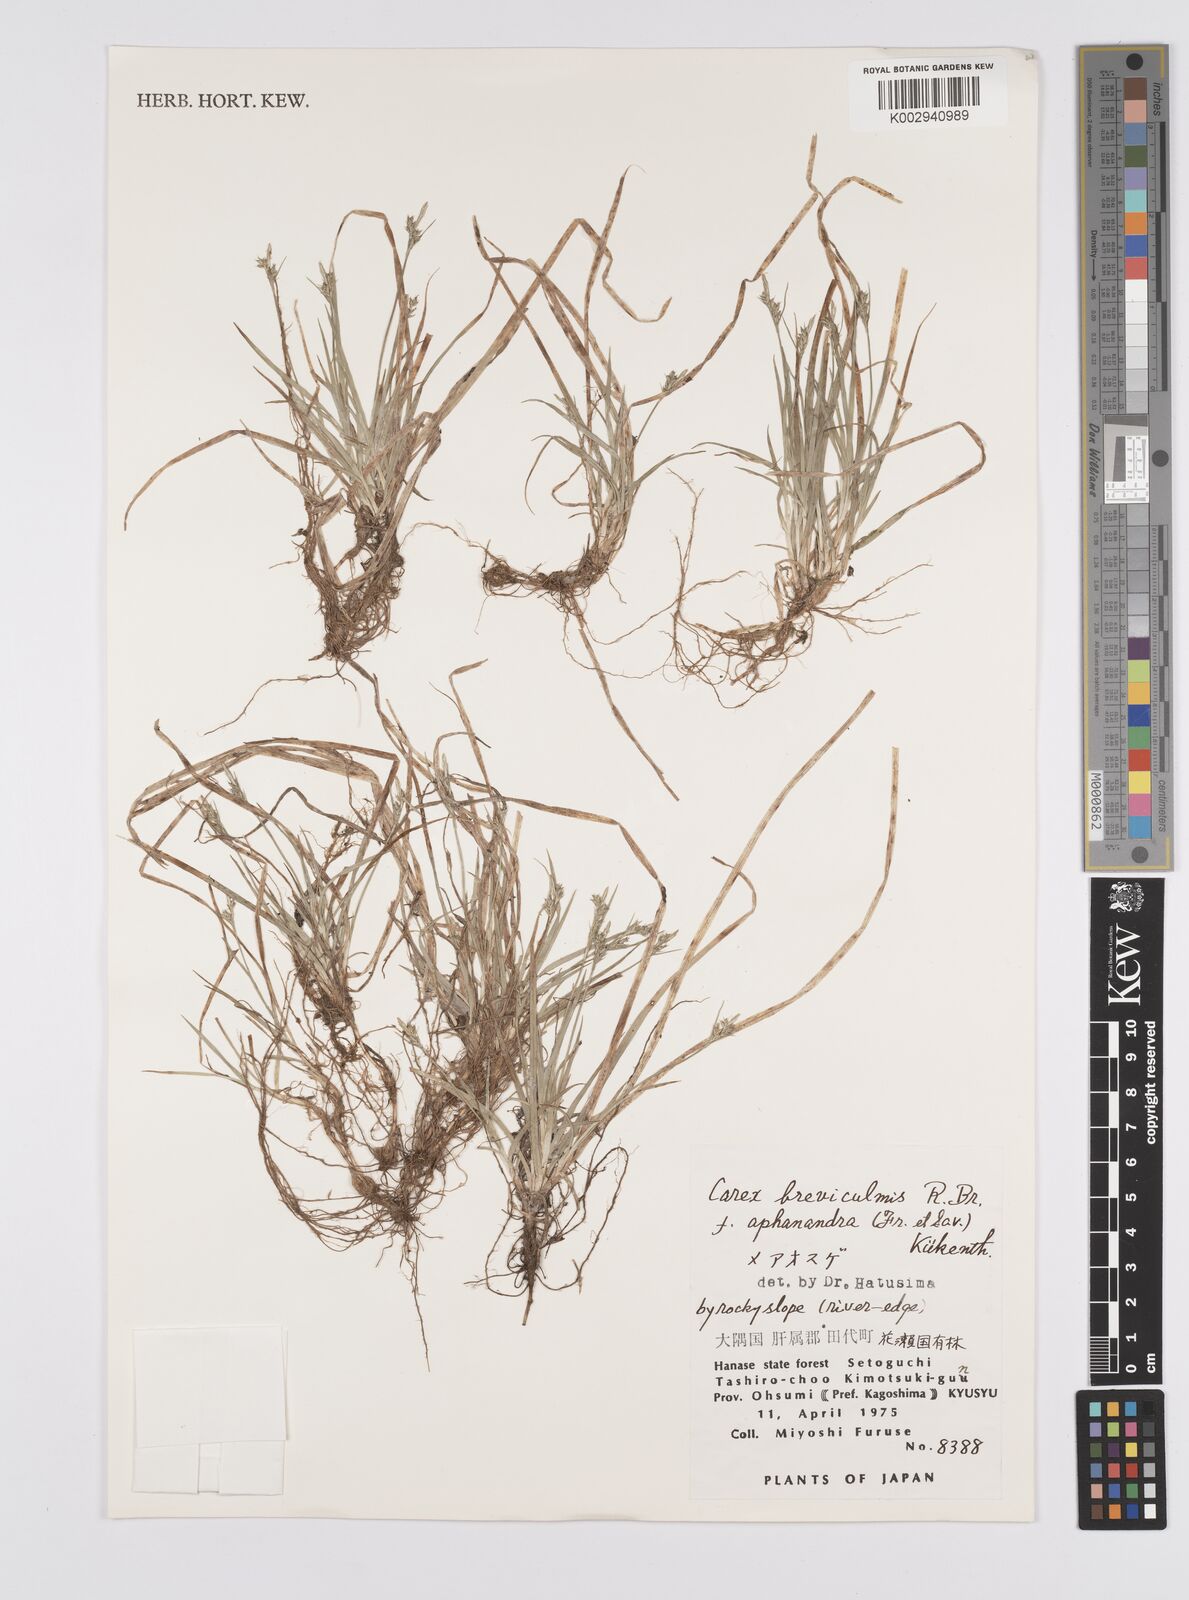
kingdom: Plantae
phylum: Tracheophyta
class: Liliopsida
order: Poales
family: Cyperaceae
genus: Carex
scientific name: Carex breviculmis
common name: Asian shortstem sedge
